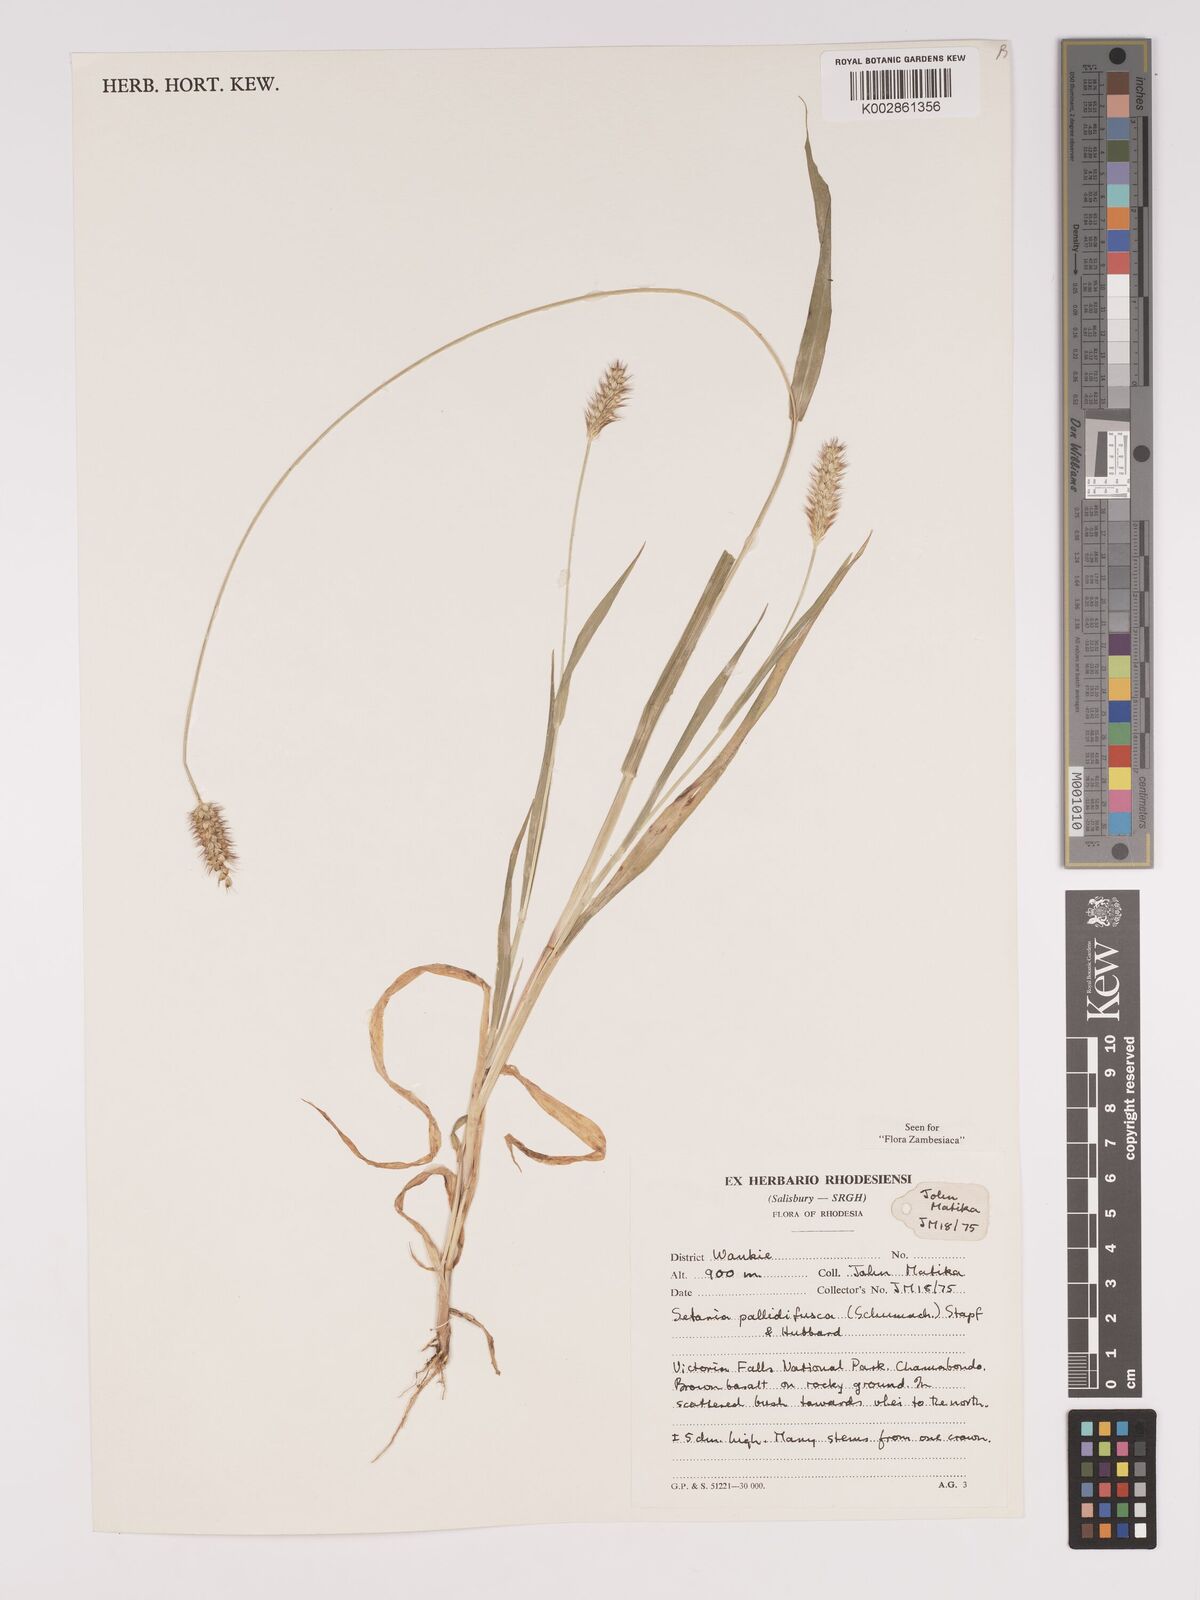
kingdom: Plantae
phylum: Tracheophyta
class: Liliopsida
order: Poales
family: Poaceae
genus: Setaria
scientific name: Setaria pumila
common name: Yellow bristle-grass
